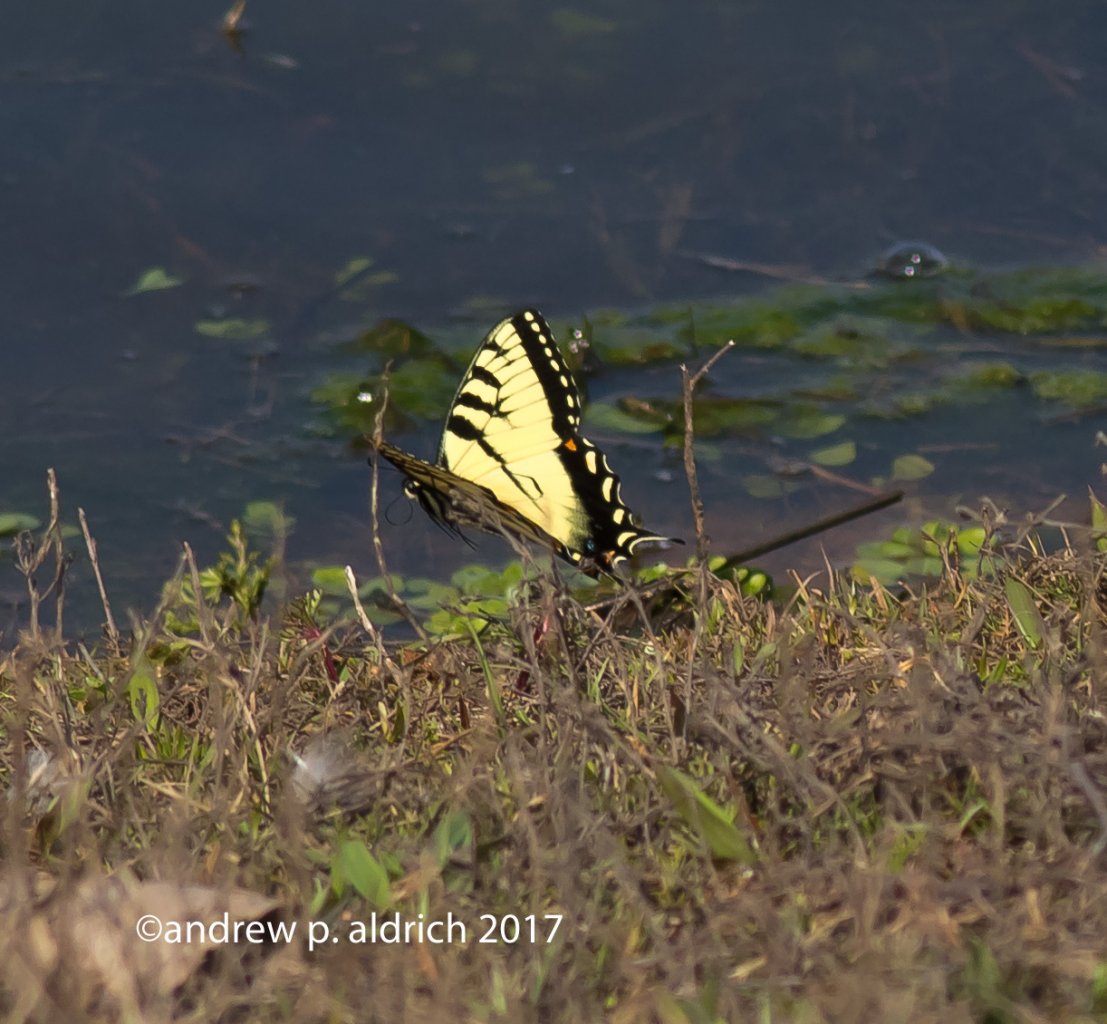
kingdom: Animalia
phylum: Arthropoda
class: Insecta
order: Lepidoptera
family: Papilionidae
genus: Pterourus
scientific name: Pterourus glaucus
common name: Eastern Tiger Swallowtail
